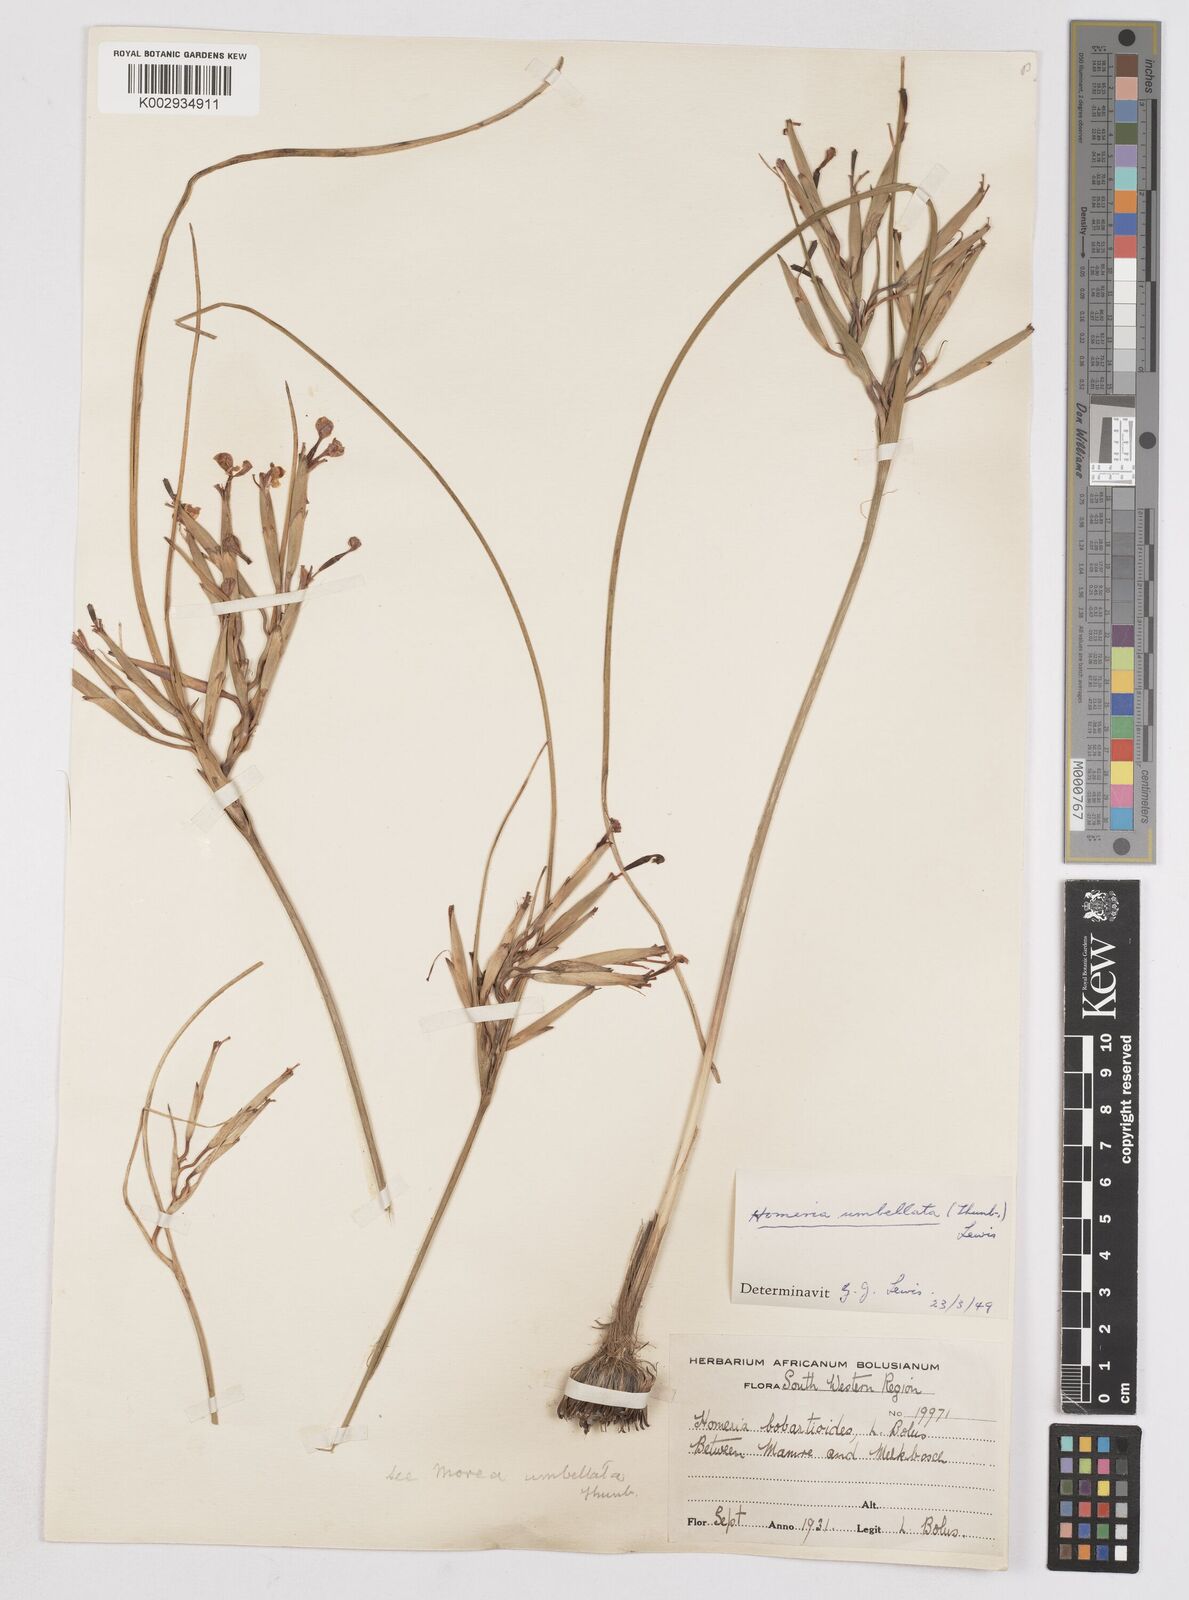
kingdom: Plantae
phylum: Tracheophyta
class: Liliopsida
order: Asparagales
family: Iridaceae
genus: Moraea
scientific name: Moraea umbellata
